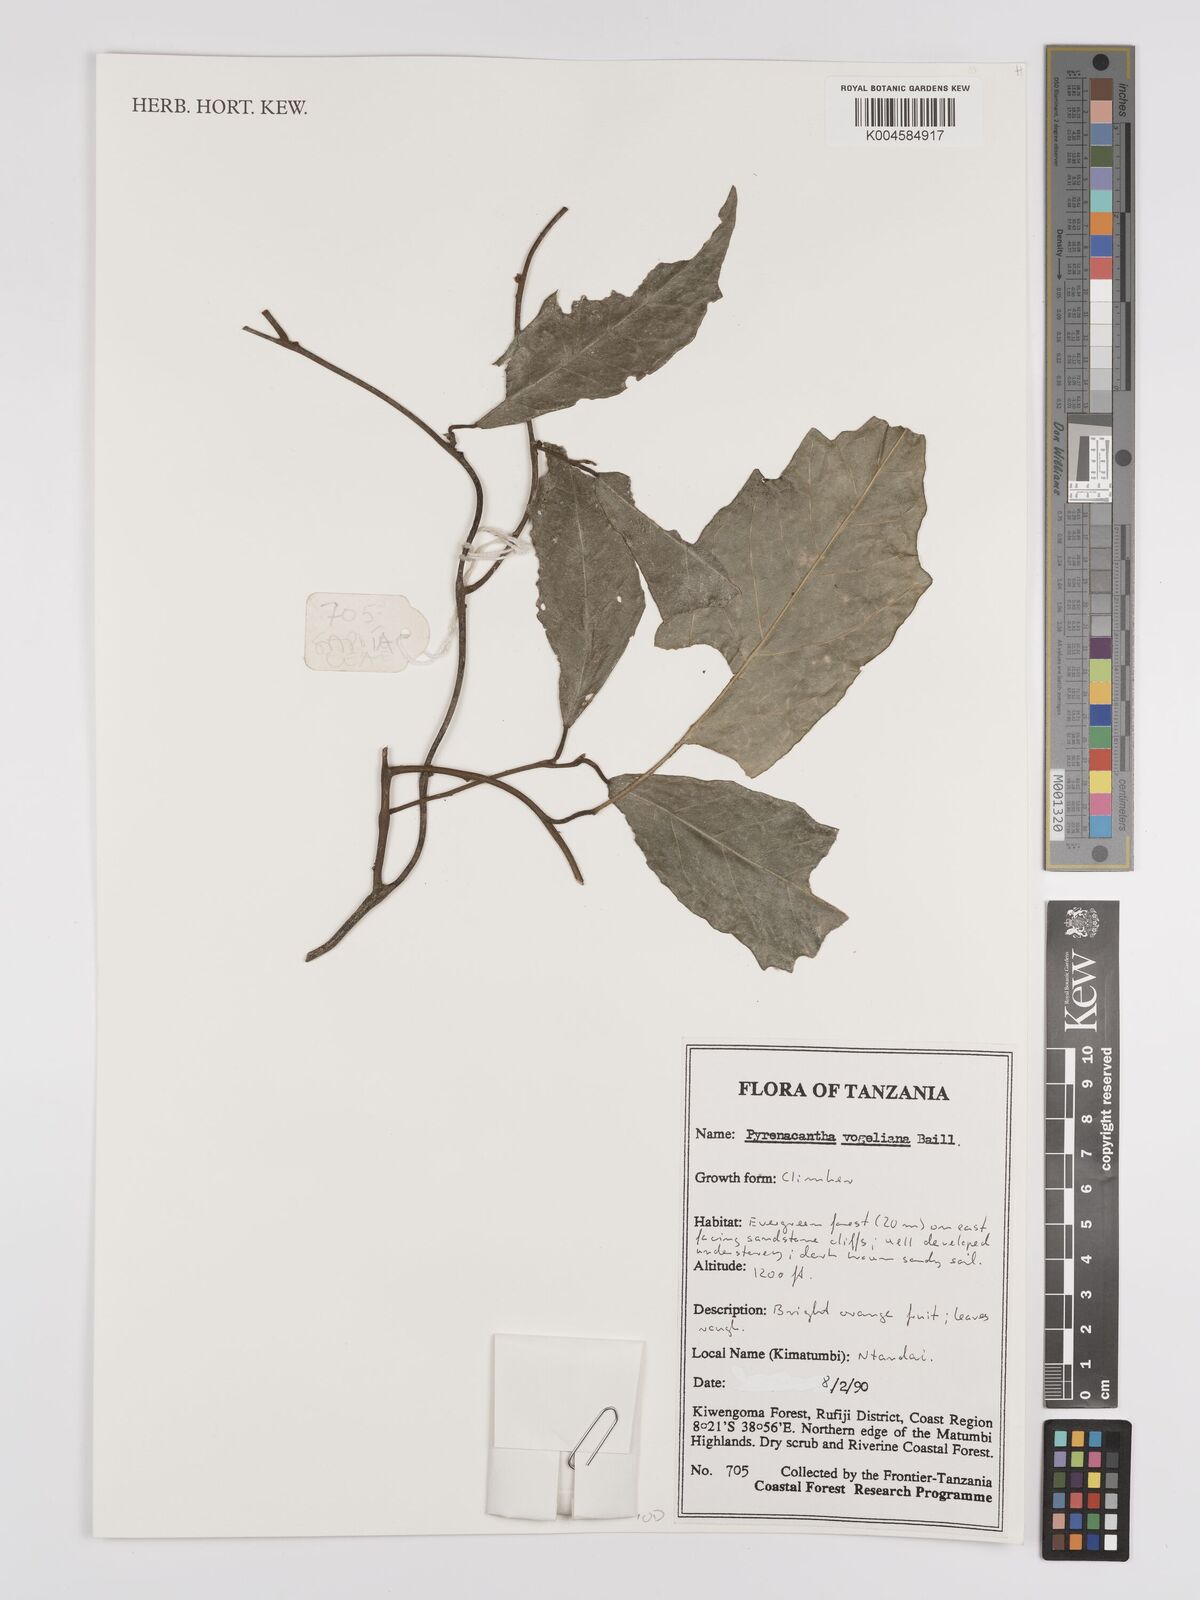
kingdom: Plantae
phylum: Tracheophyta
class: Magnoliopsida
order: Icacinales
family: Icacinaceae
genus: Pyrenacantha
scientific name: Pyrenacantha vogeliana
